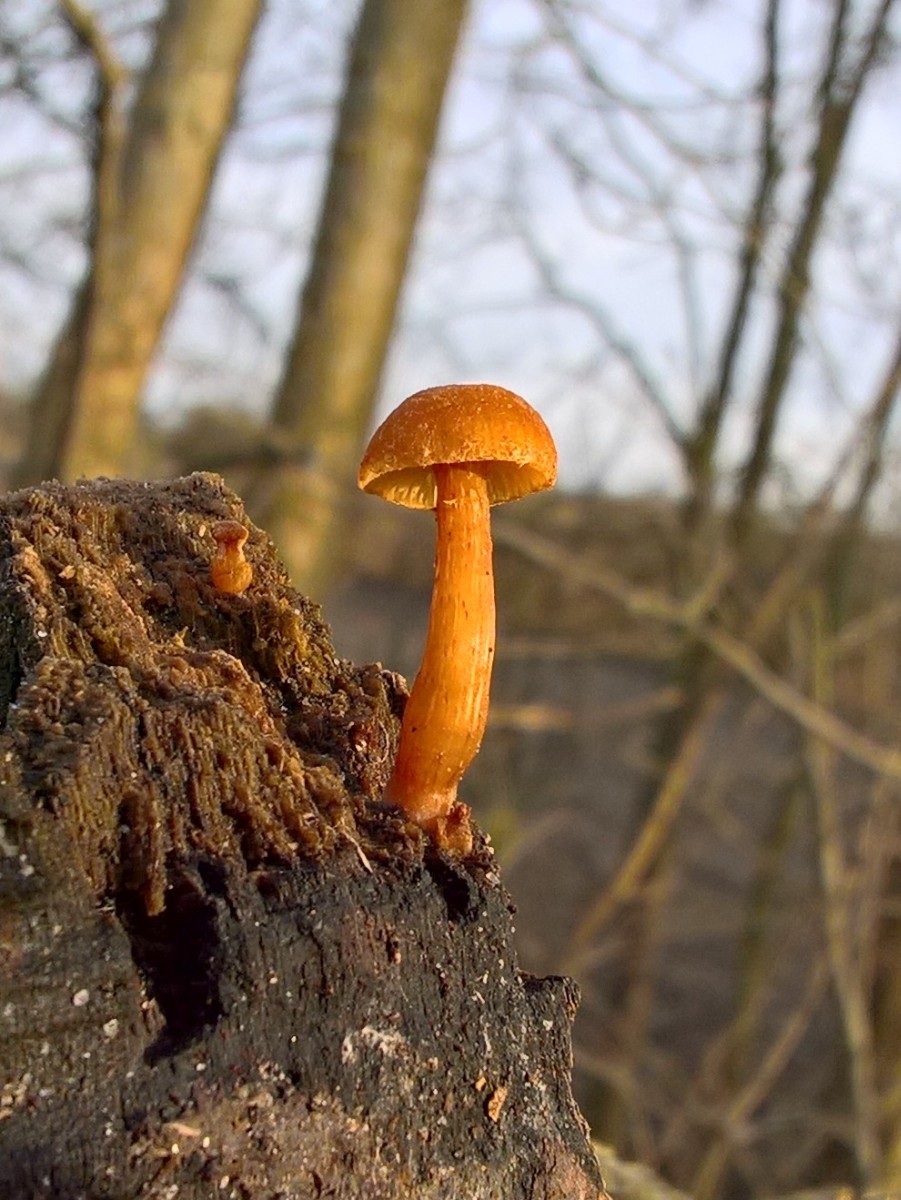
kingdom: Fungi
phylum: Basidiomycota
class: Agaricomycetes
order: Agaricales
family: Tubariaceae
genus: Tubaria
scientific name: Tubaria furfuracea
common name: kliddet fnughat
